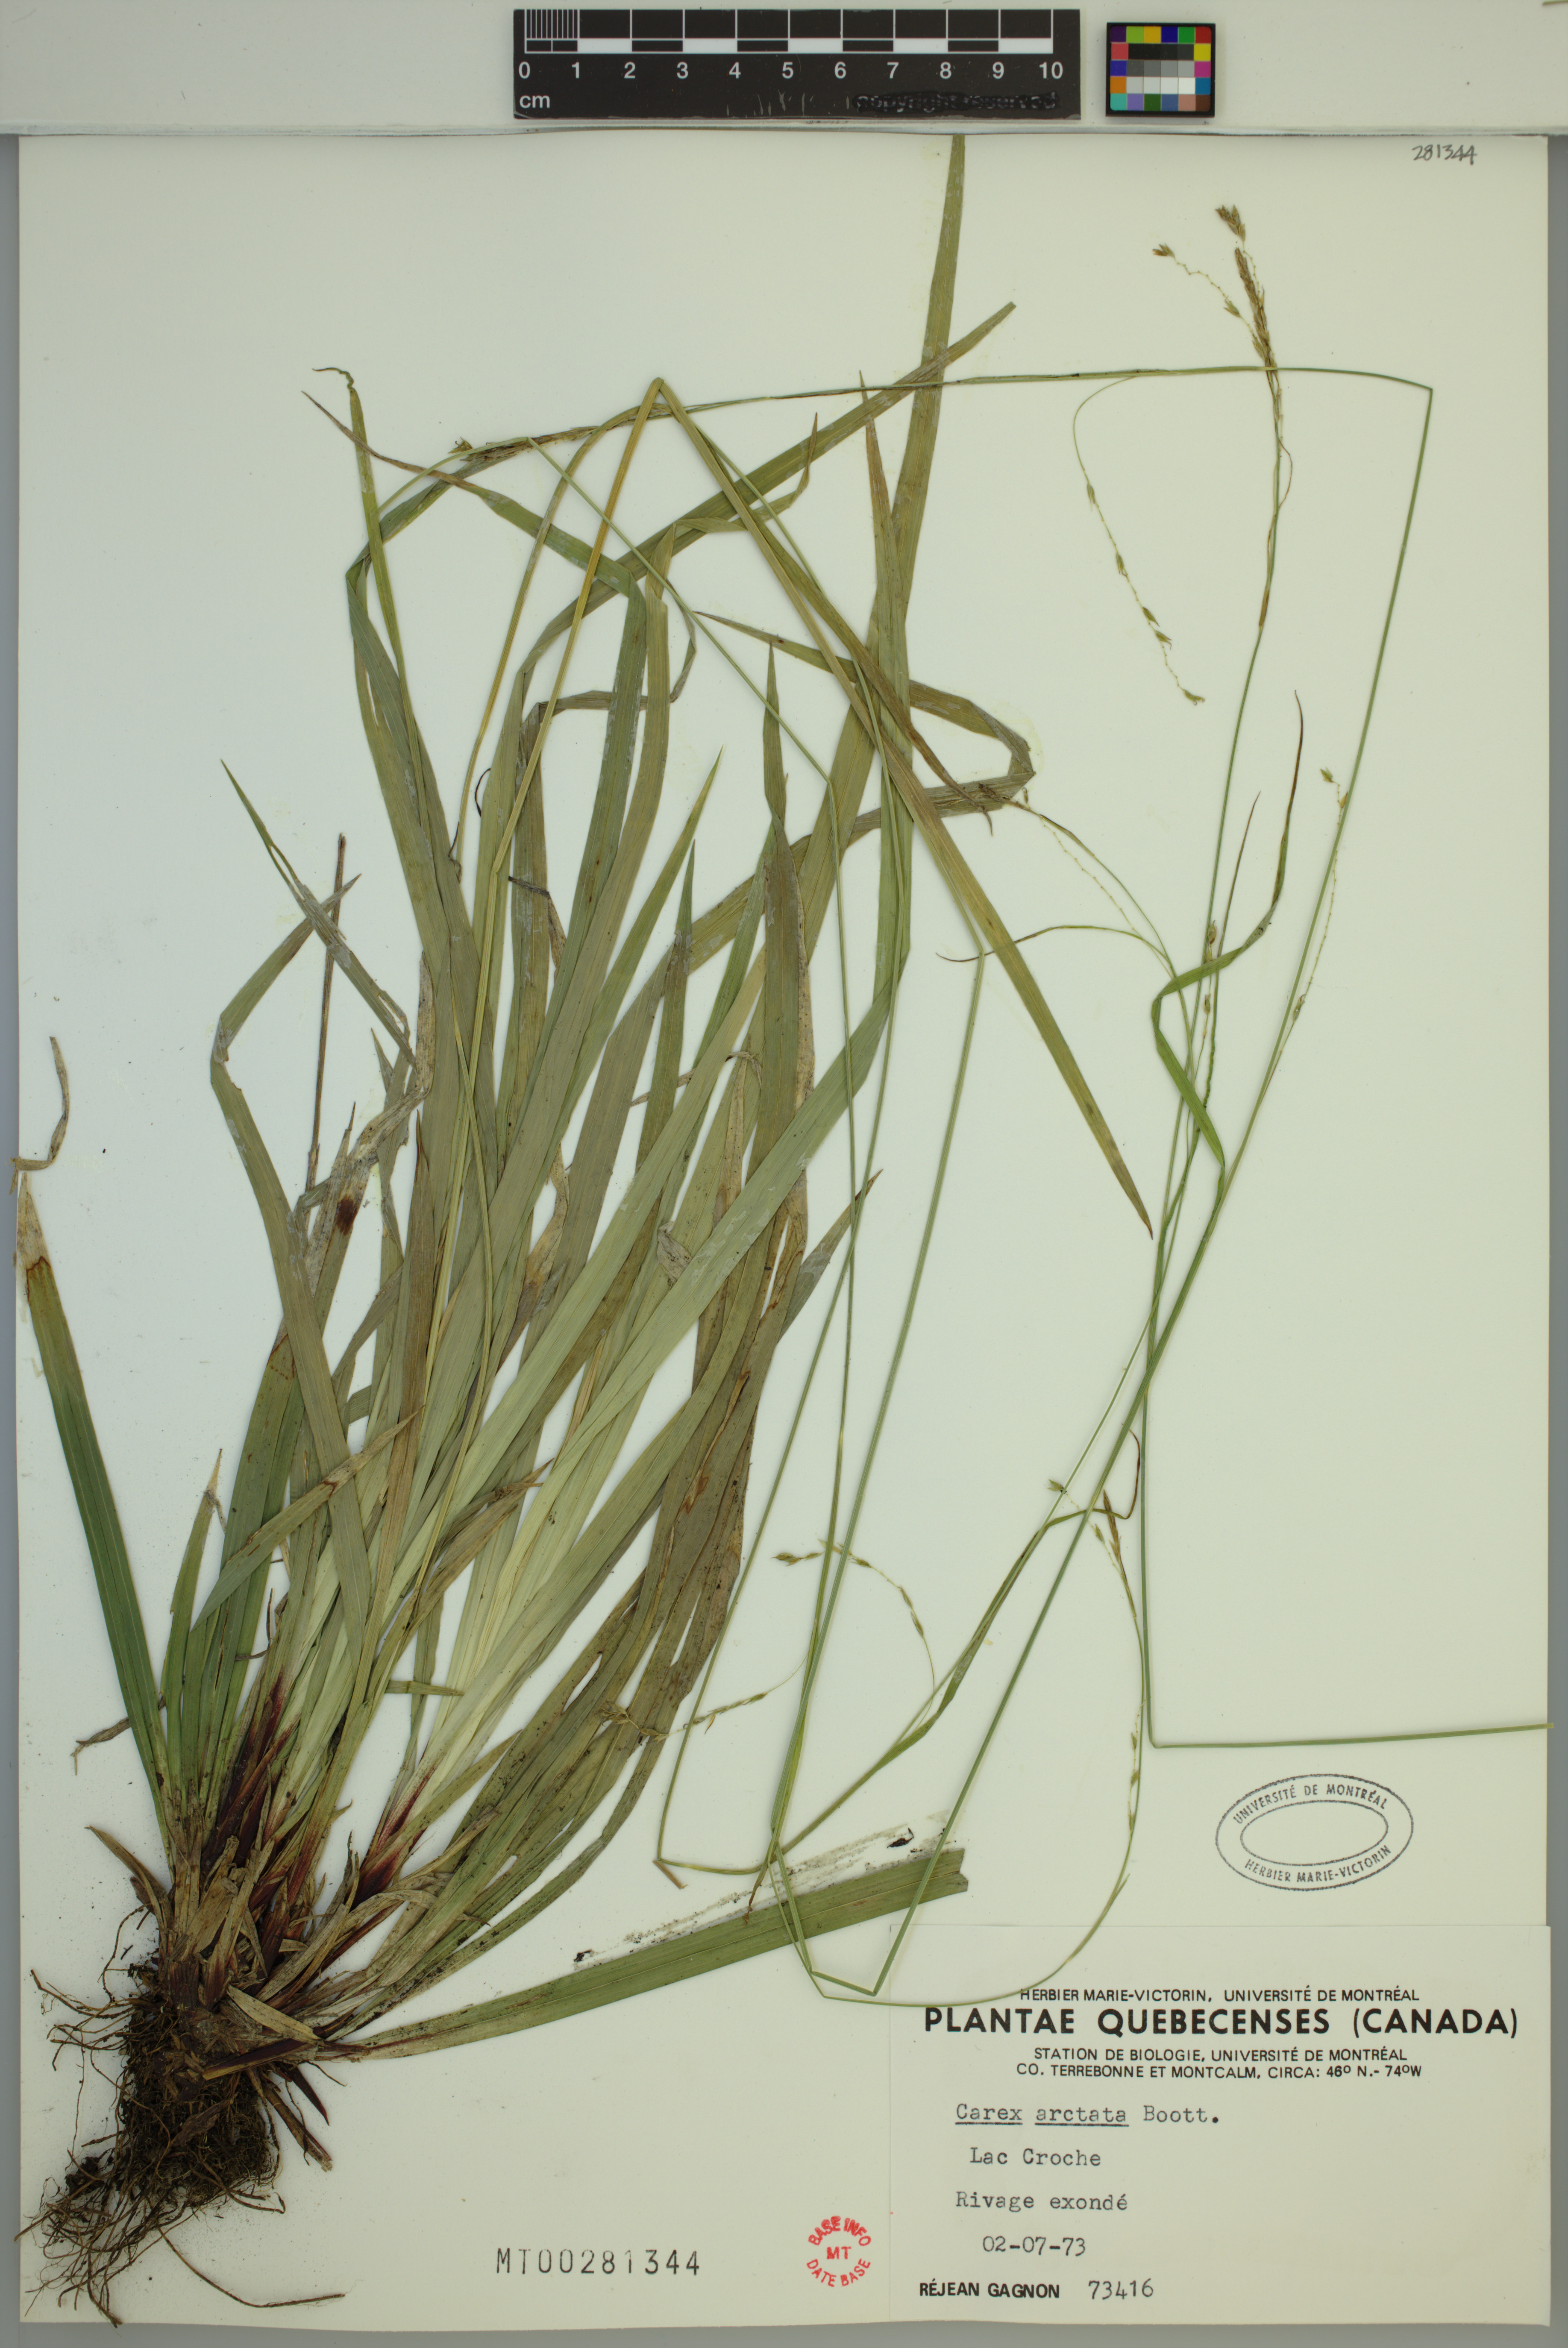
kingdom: Plantae
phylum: Tracheophyta
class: Liliopsida
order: Poales
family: Cyperaceae
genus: Carex
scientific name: Carex arctata
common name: Black sedge
